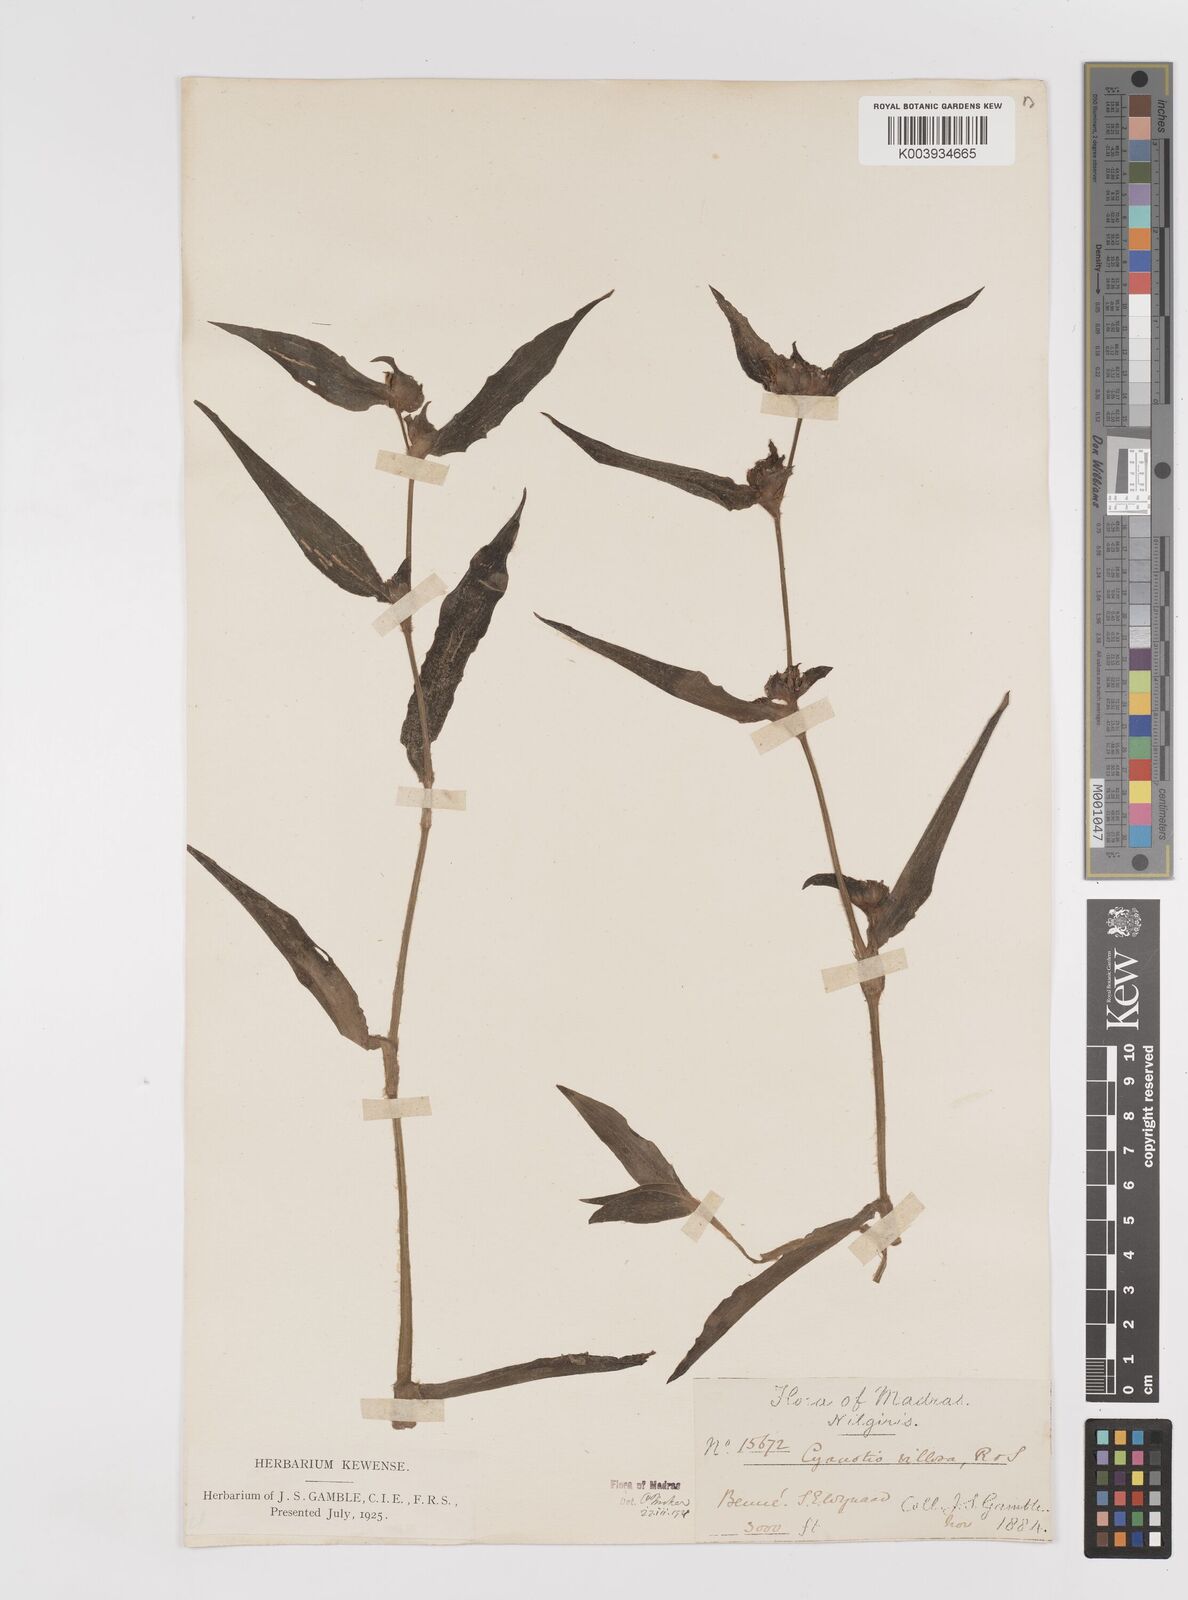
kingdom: Plantae
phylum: Tracheophyta
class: Liliopsida
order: Commelinales
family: Commelinaceae
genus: Cyanotis
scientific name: Cyanotis villosa
